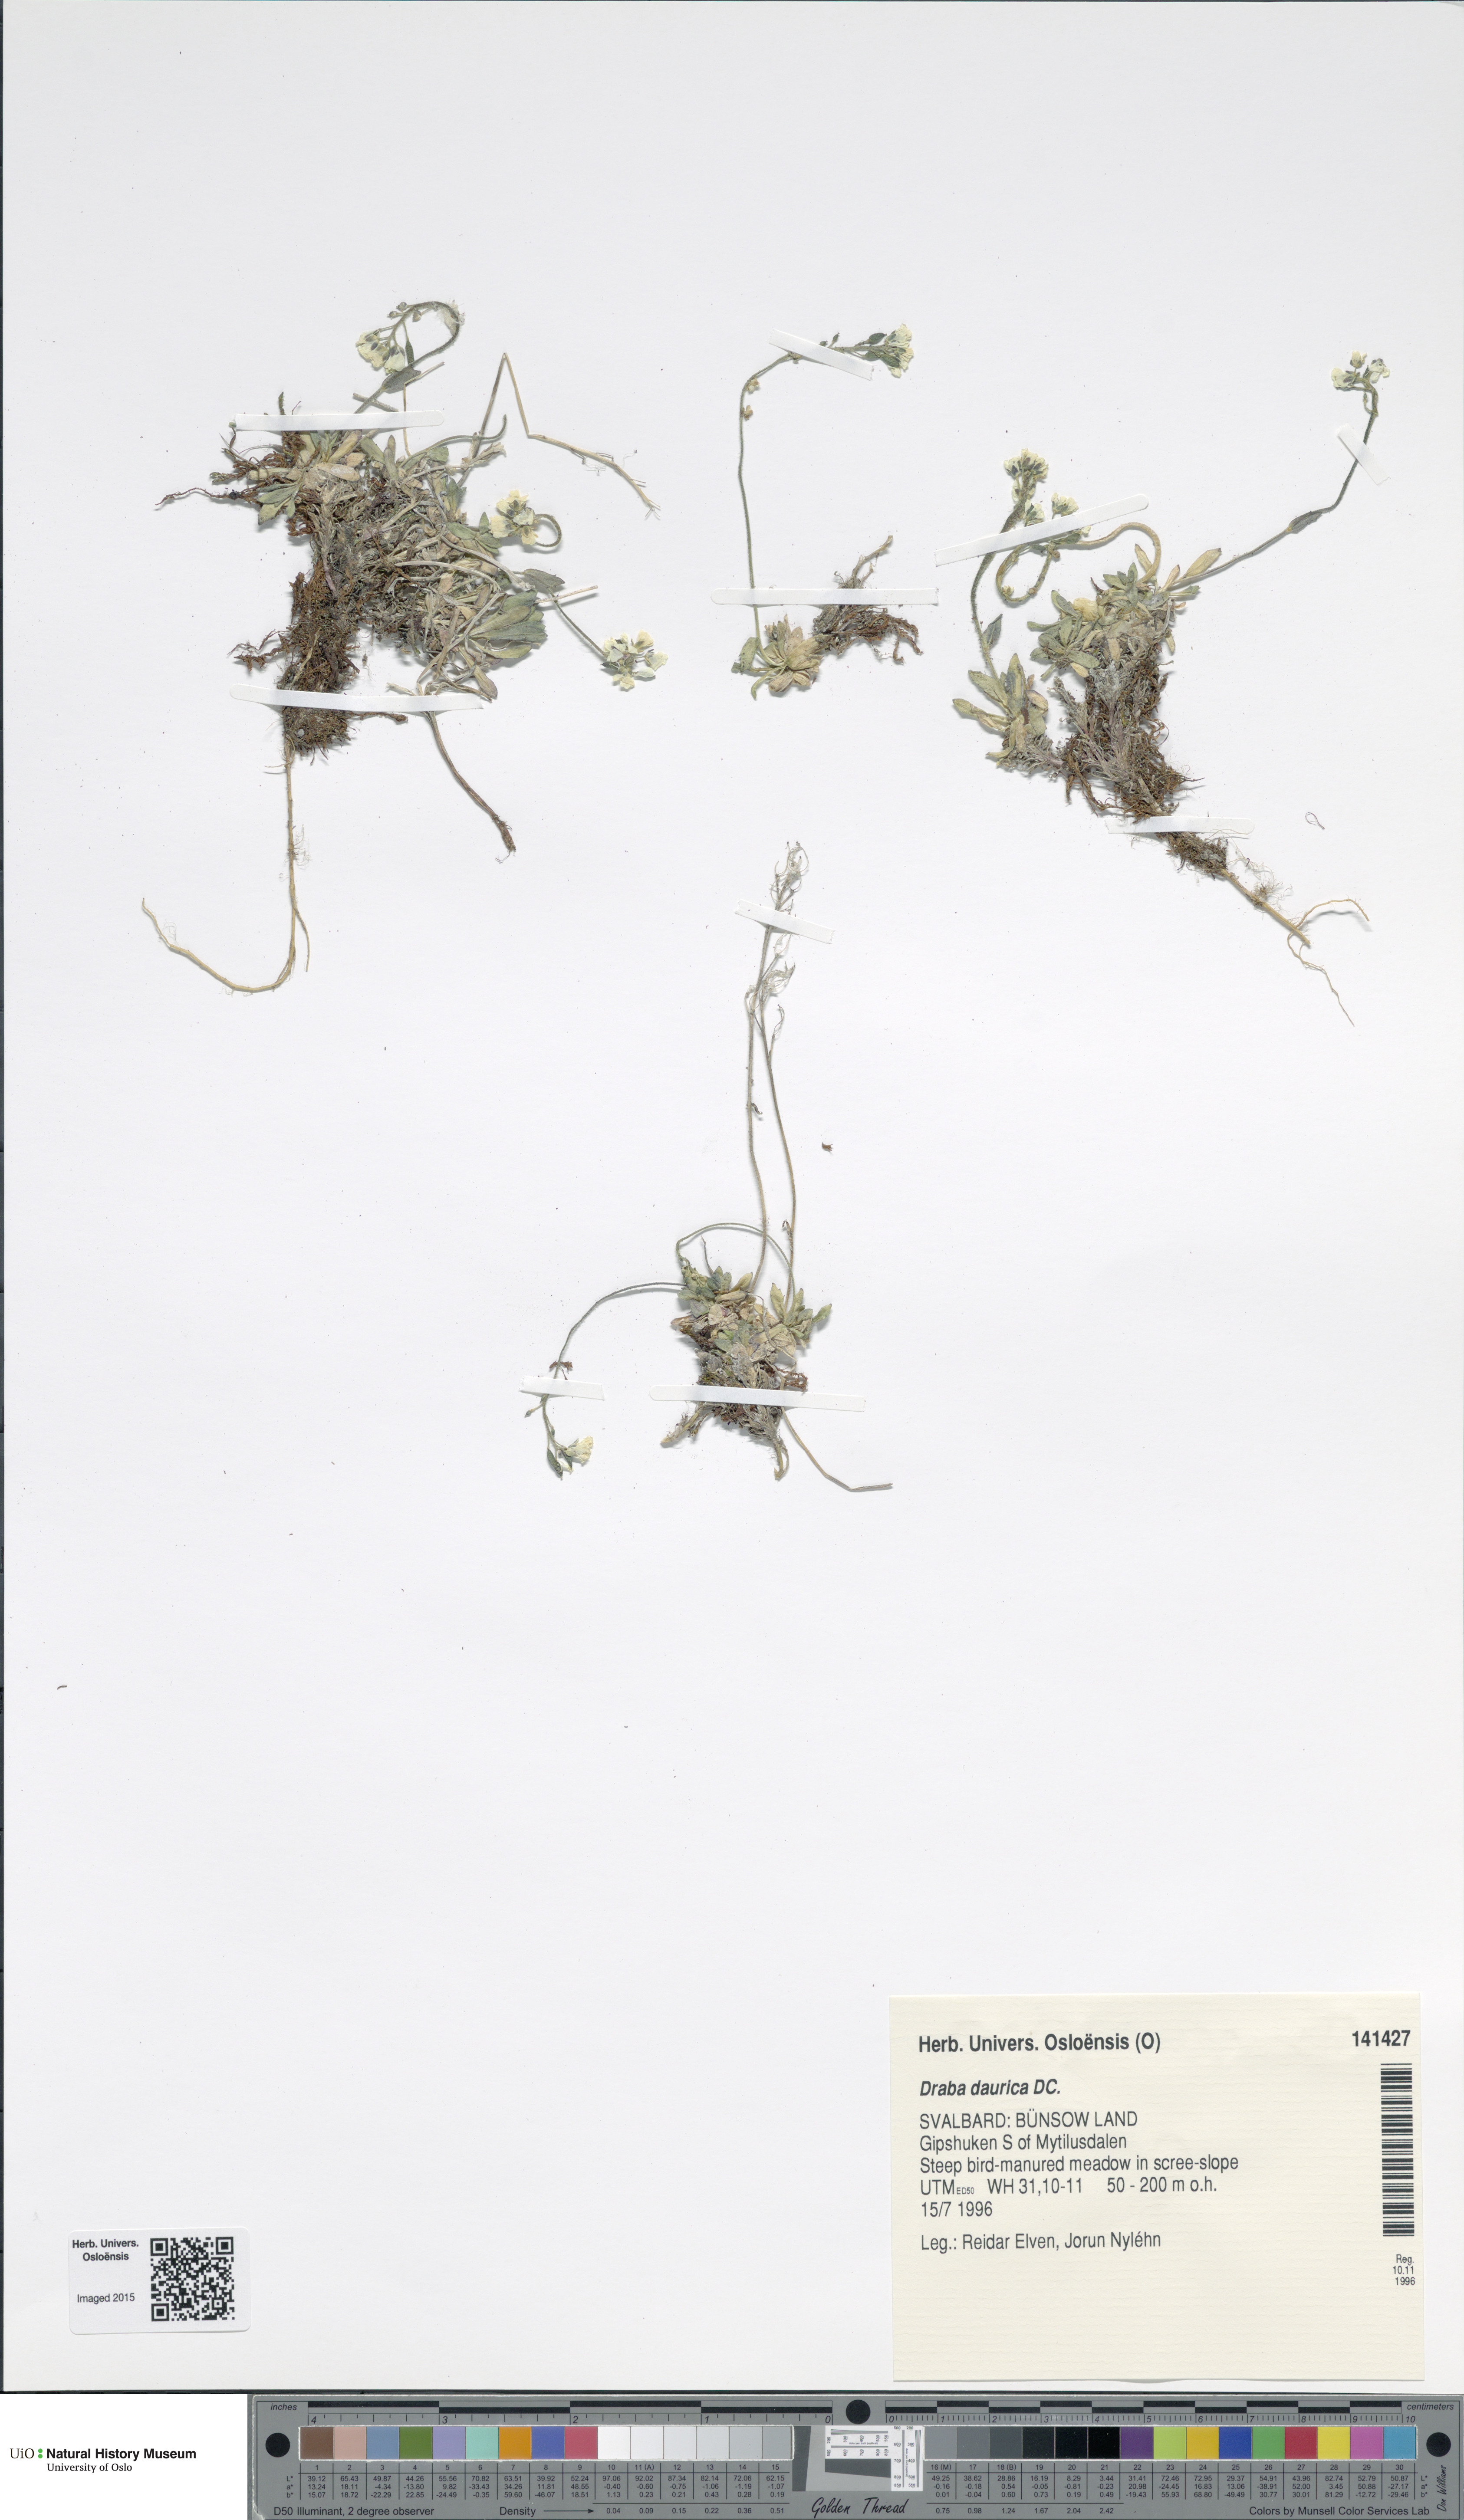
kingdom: Plantae
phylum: Tracheophyta
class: Magnoliopsida
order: Brassicales
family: Brassicaceae
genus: Draba
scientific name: Draba glabella
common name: Glaucous draba
